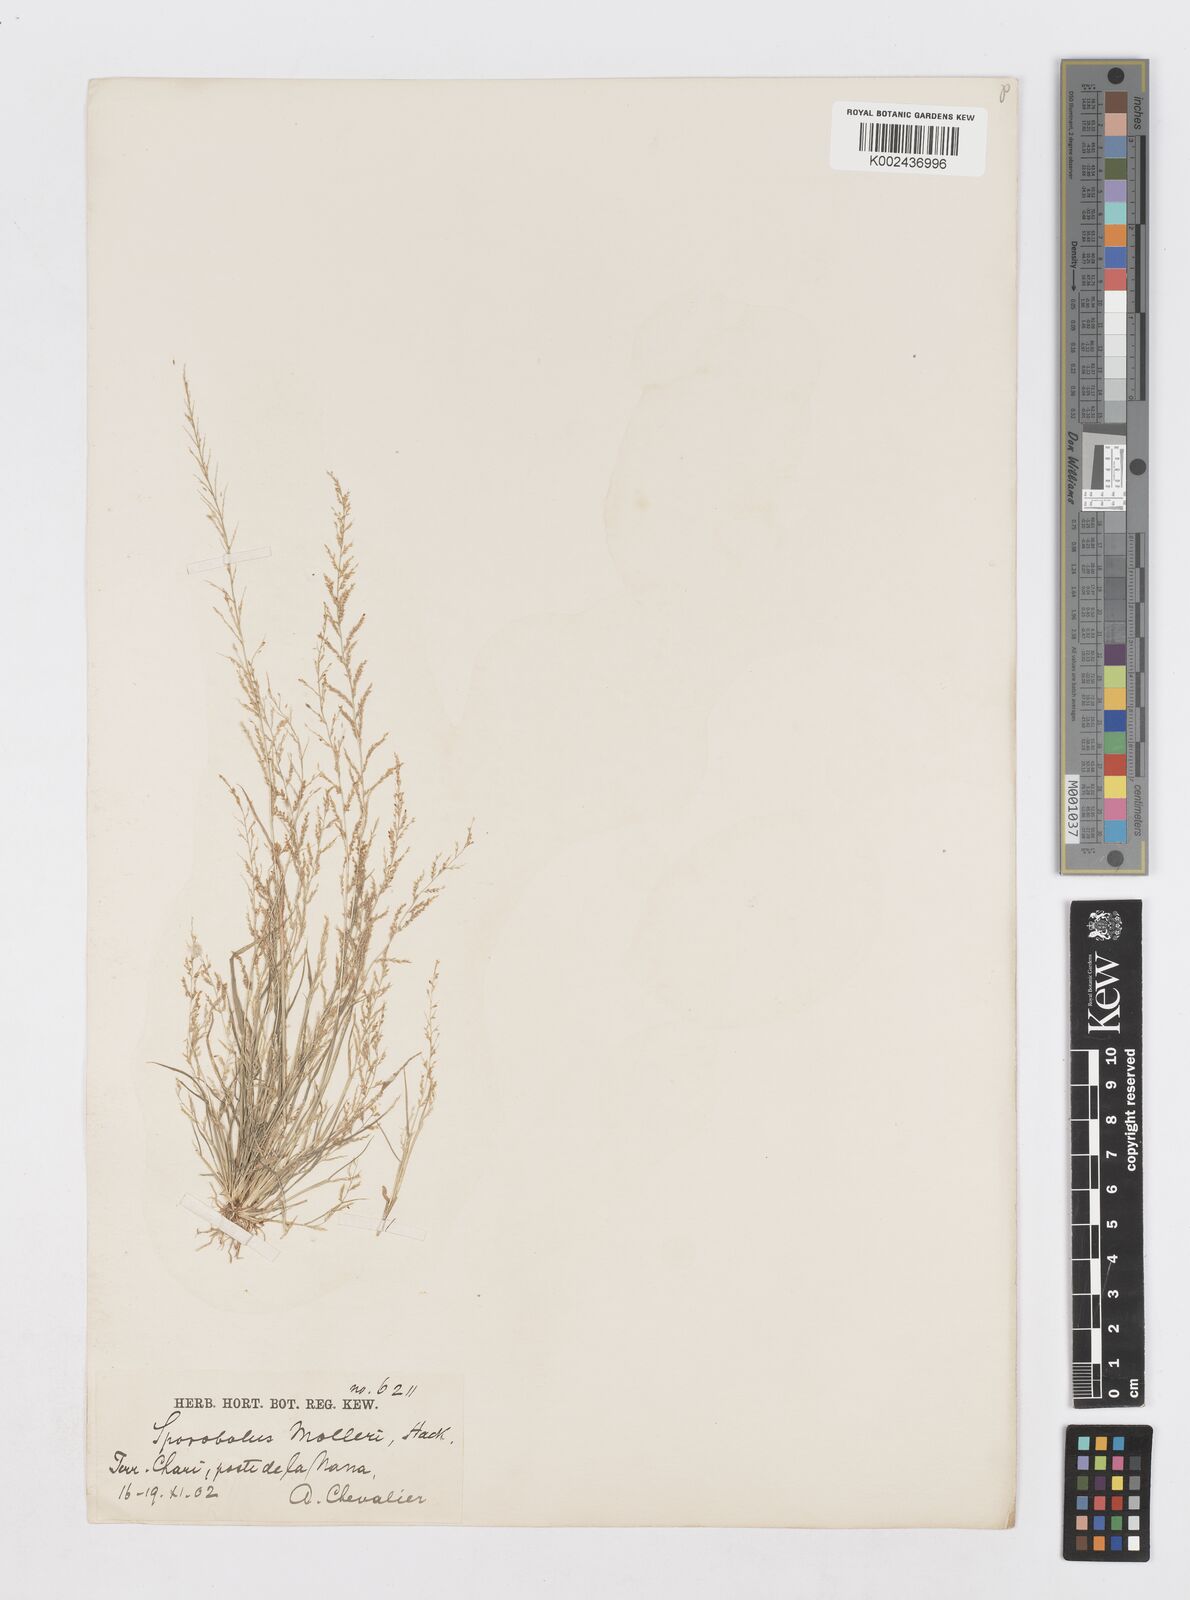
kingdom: Plantae
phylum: Tracheophyta
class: Liliopsida
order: Poales
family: Poaceae
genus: Sporobolus
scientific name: Sporobolus molleri
